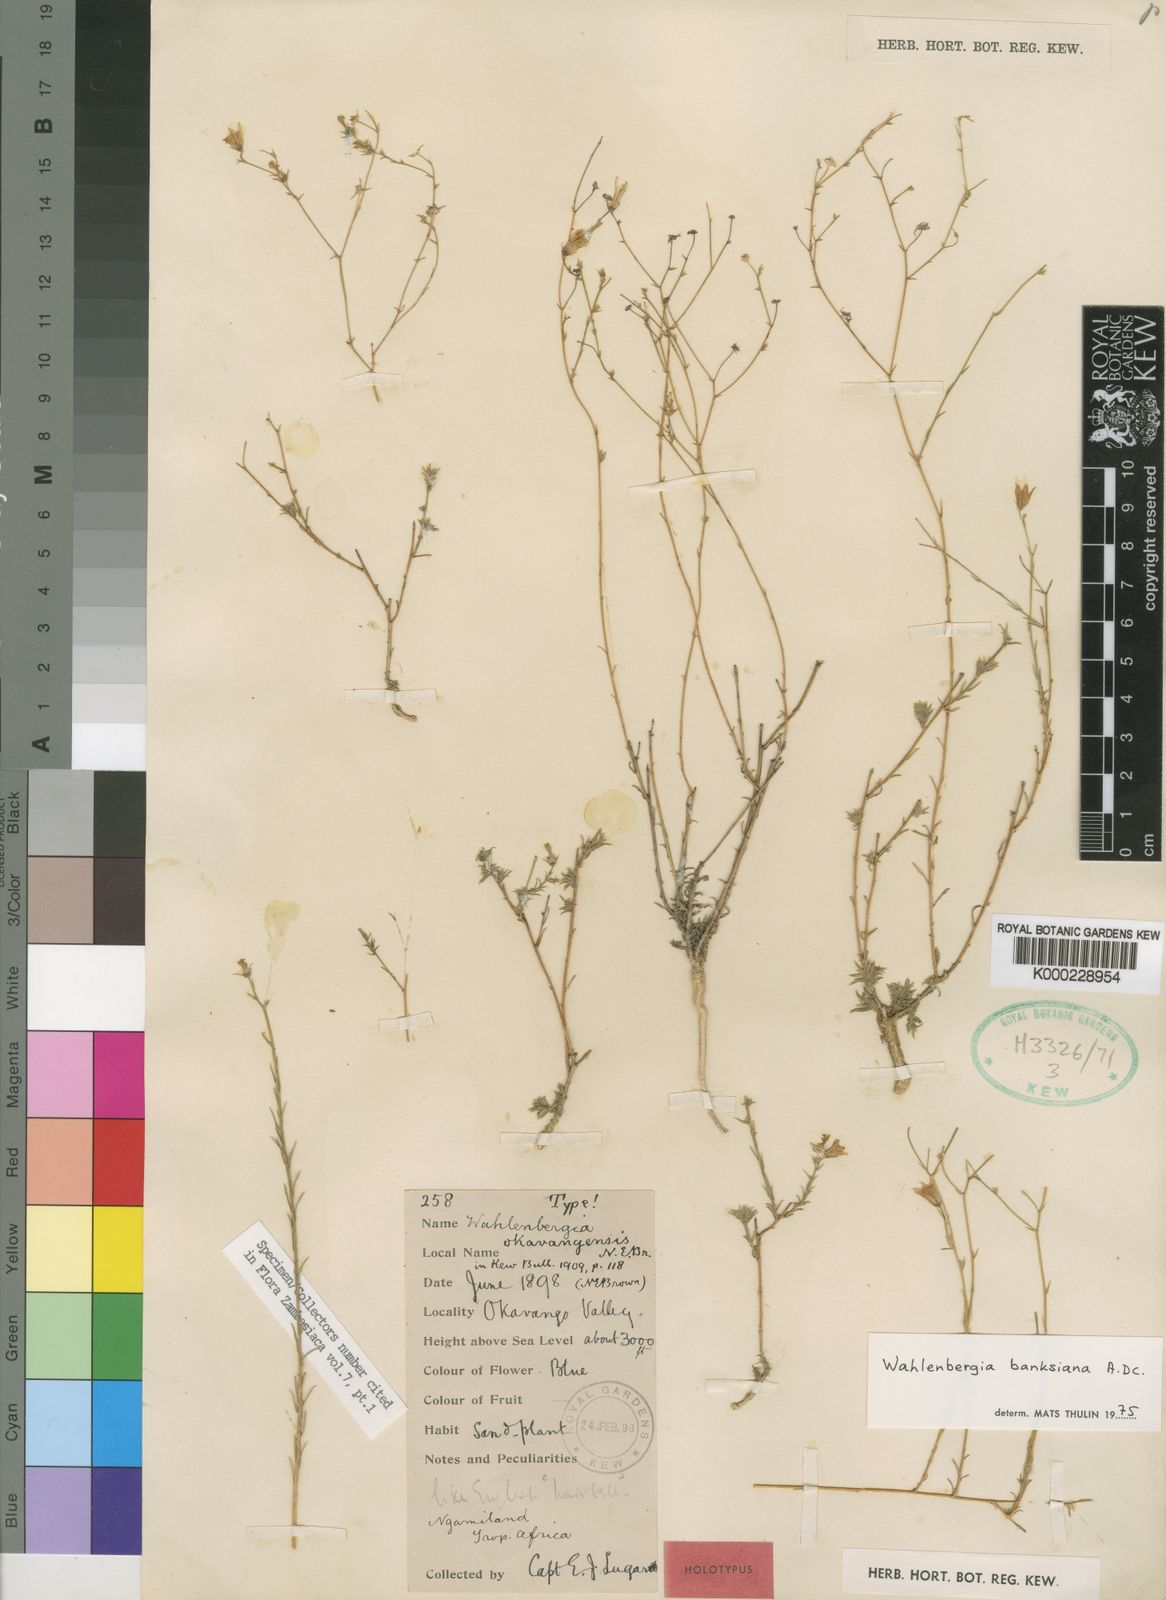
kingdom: Plantae
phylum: Tracheophyta
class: Magnoliopsida
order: Asterales
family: Campanulaceae
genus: Wahlenbergia
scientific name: Wahlenbergia banksiana
